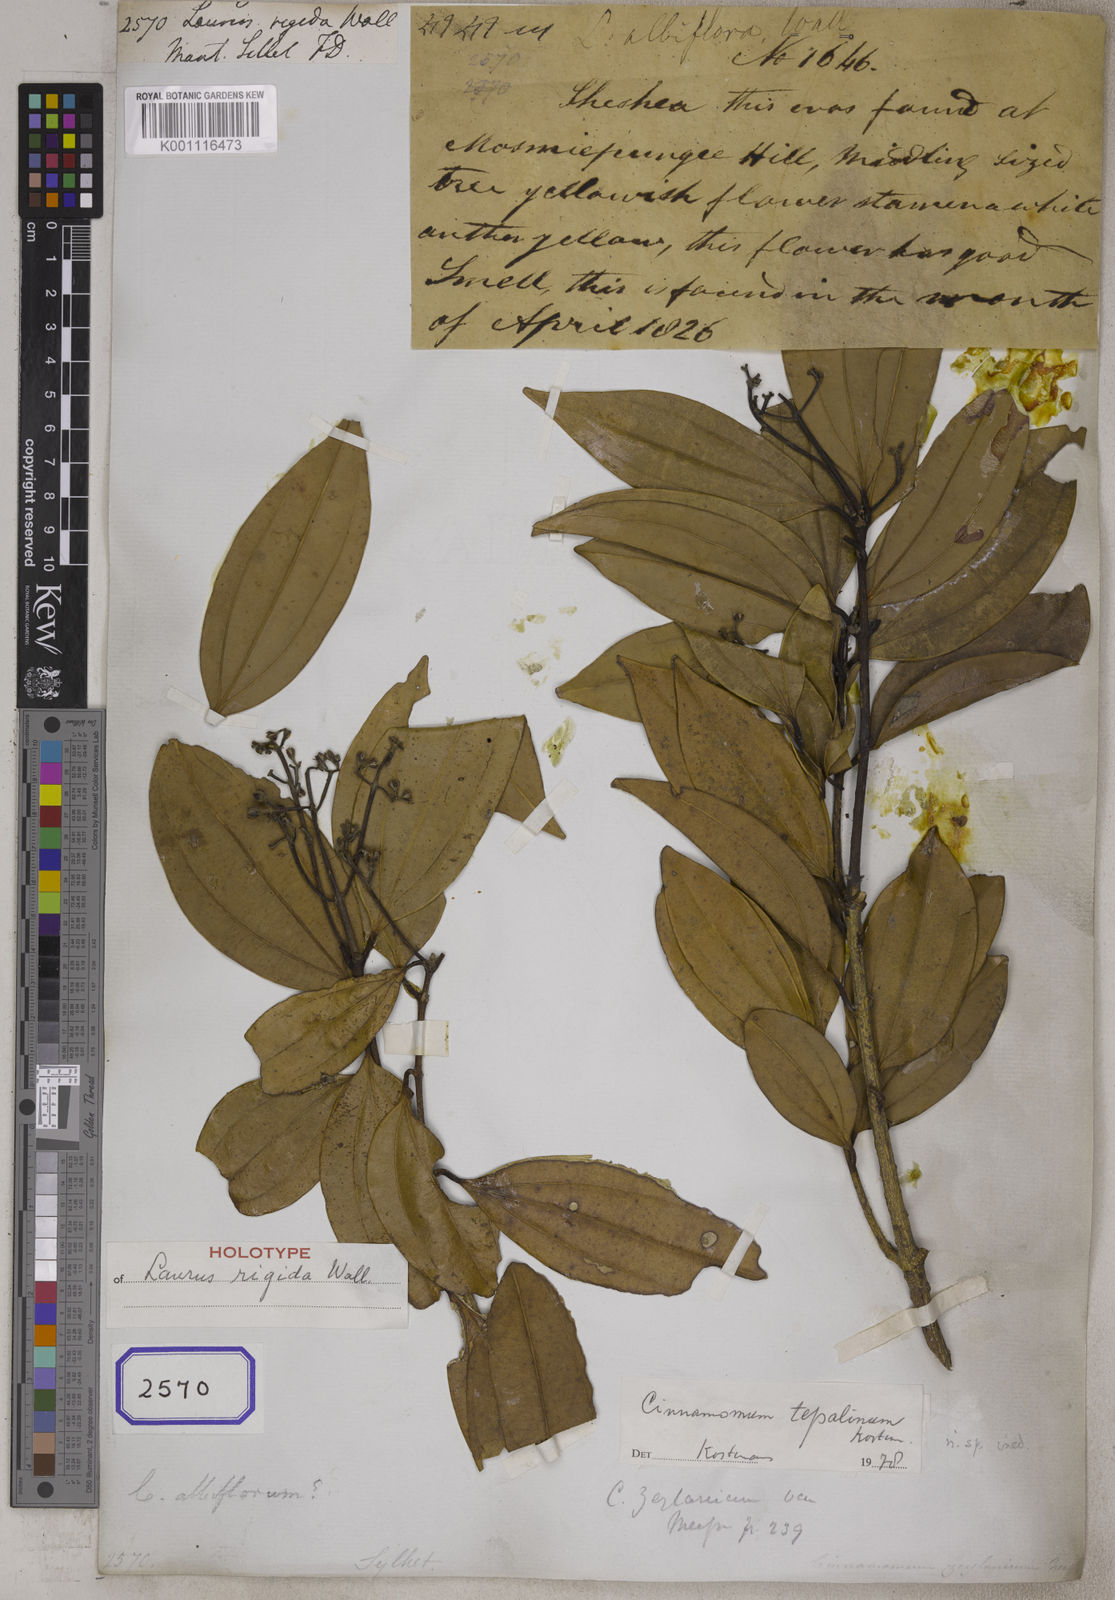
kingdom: Plantae
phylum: Tracheophyta
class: Magnoliopsida
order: Laurales
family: Lauraceae
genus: Cinnamomum
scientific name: Cinnamomum verum
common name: Cinnamon
